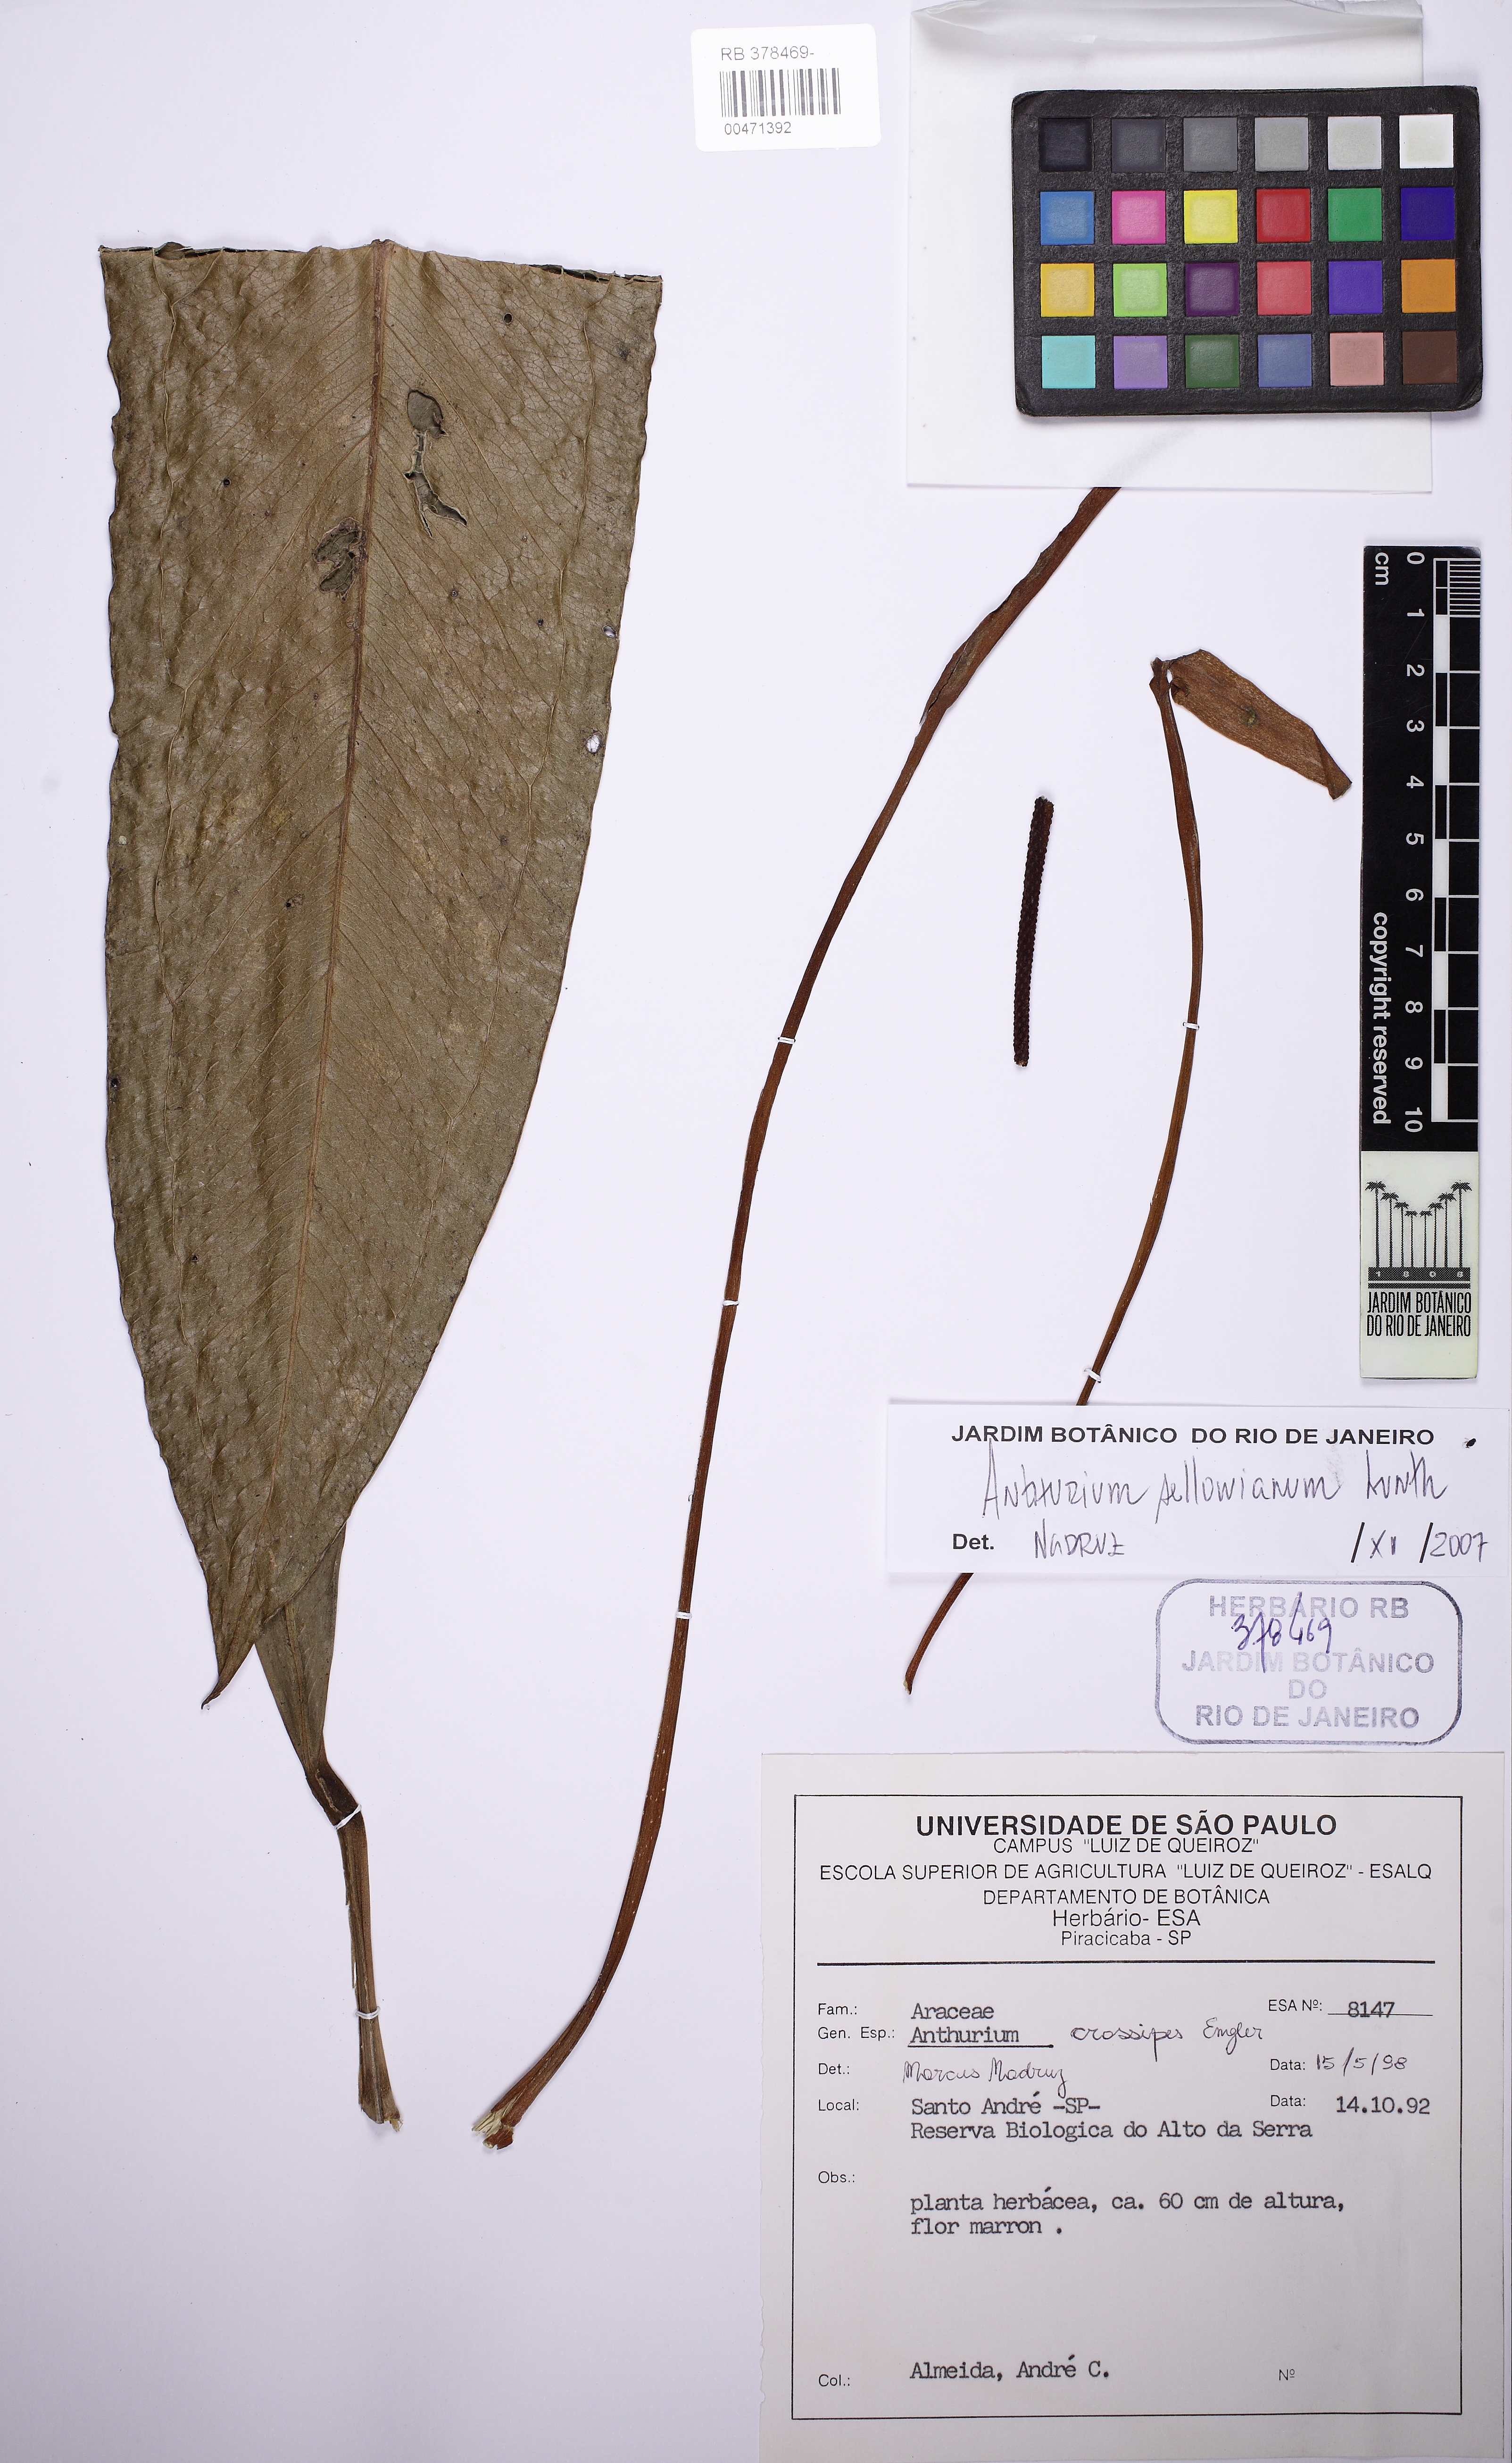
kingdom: Plantae
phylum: Tracheophyta
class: Liliopsida
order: Alismatales
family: Araceae
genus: Anthurium
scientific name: Anthurium sellowianum
